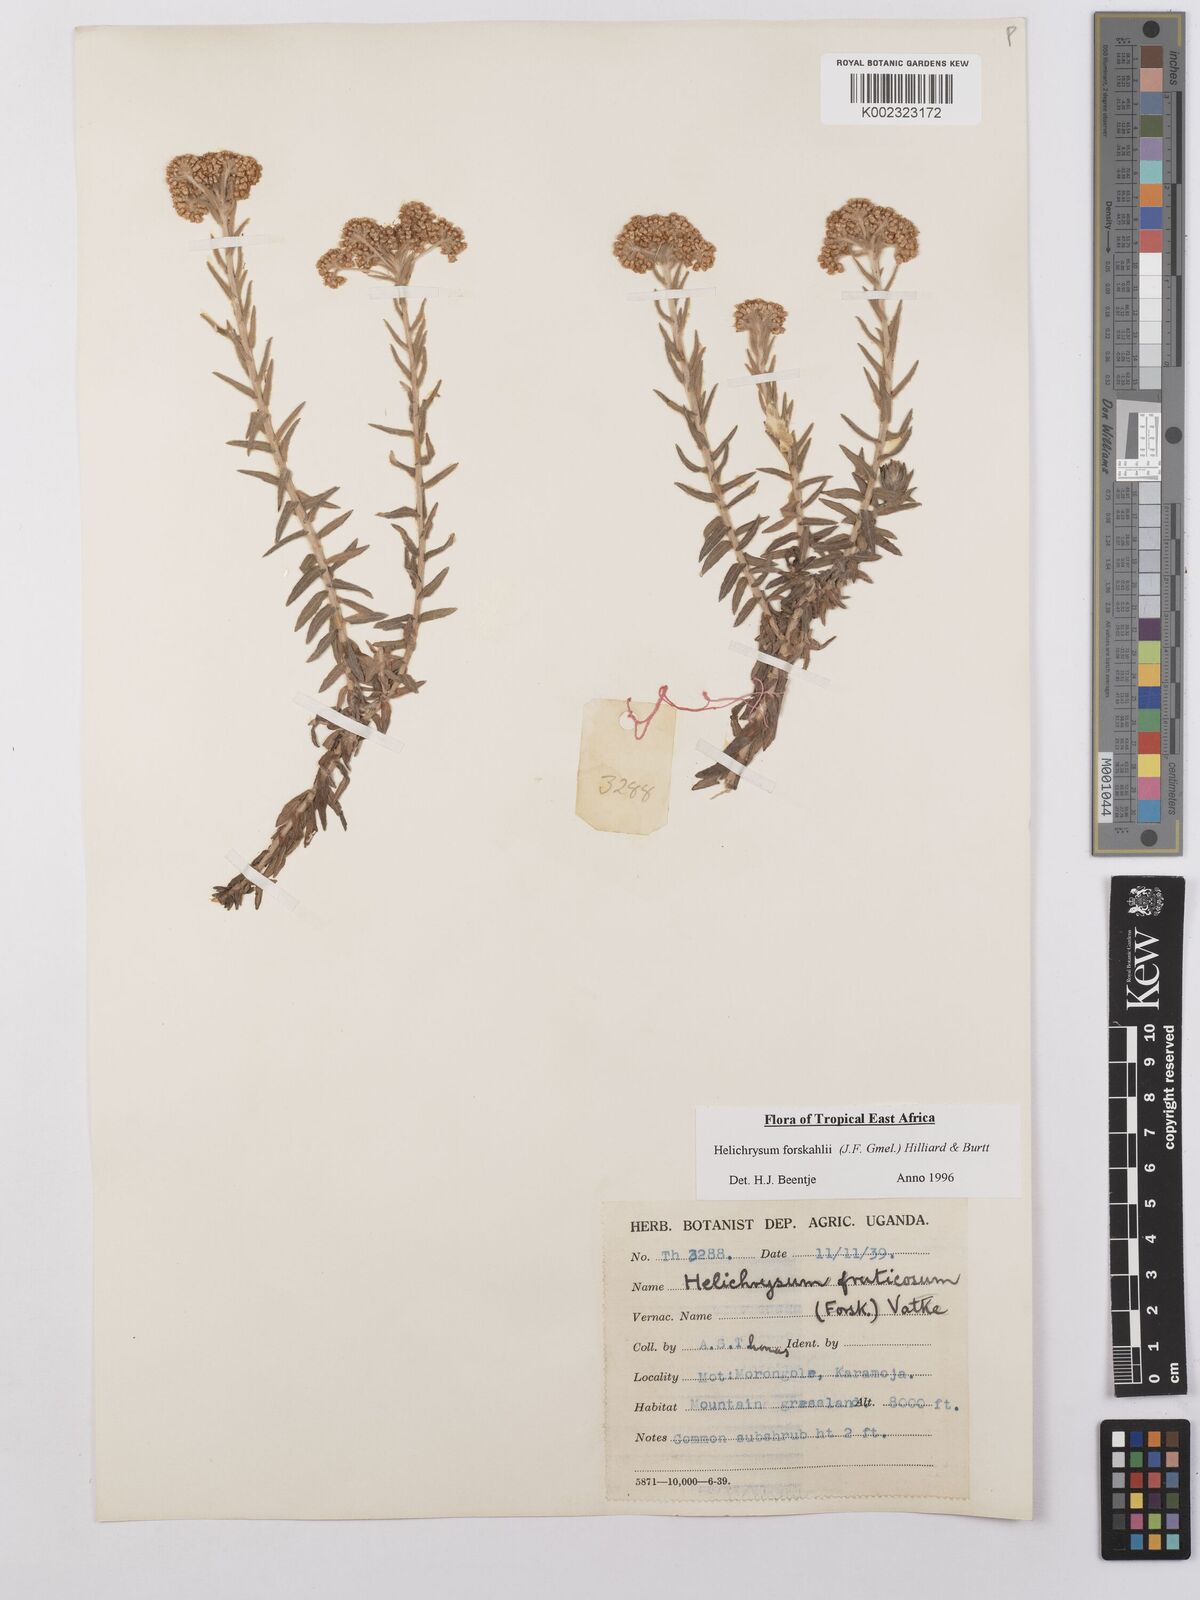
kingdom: Plantae
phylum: Tracheophyta
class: Magnoliopsida
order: Asterales
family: Asteraceae
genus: Helichrysum
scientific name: Helichrysum forskahlii
